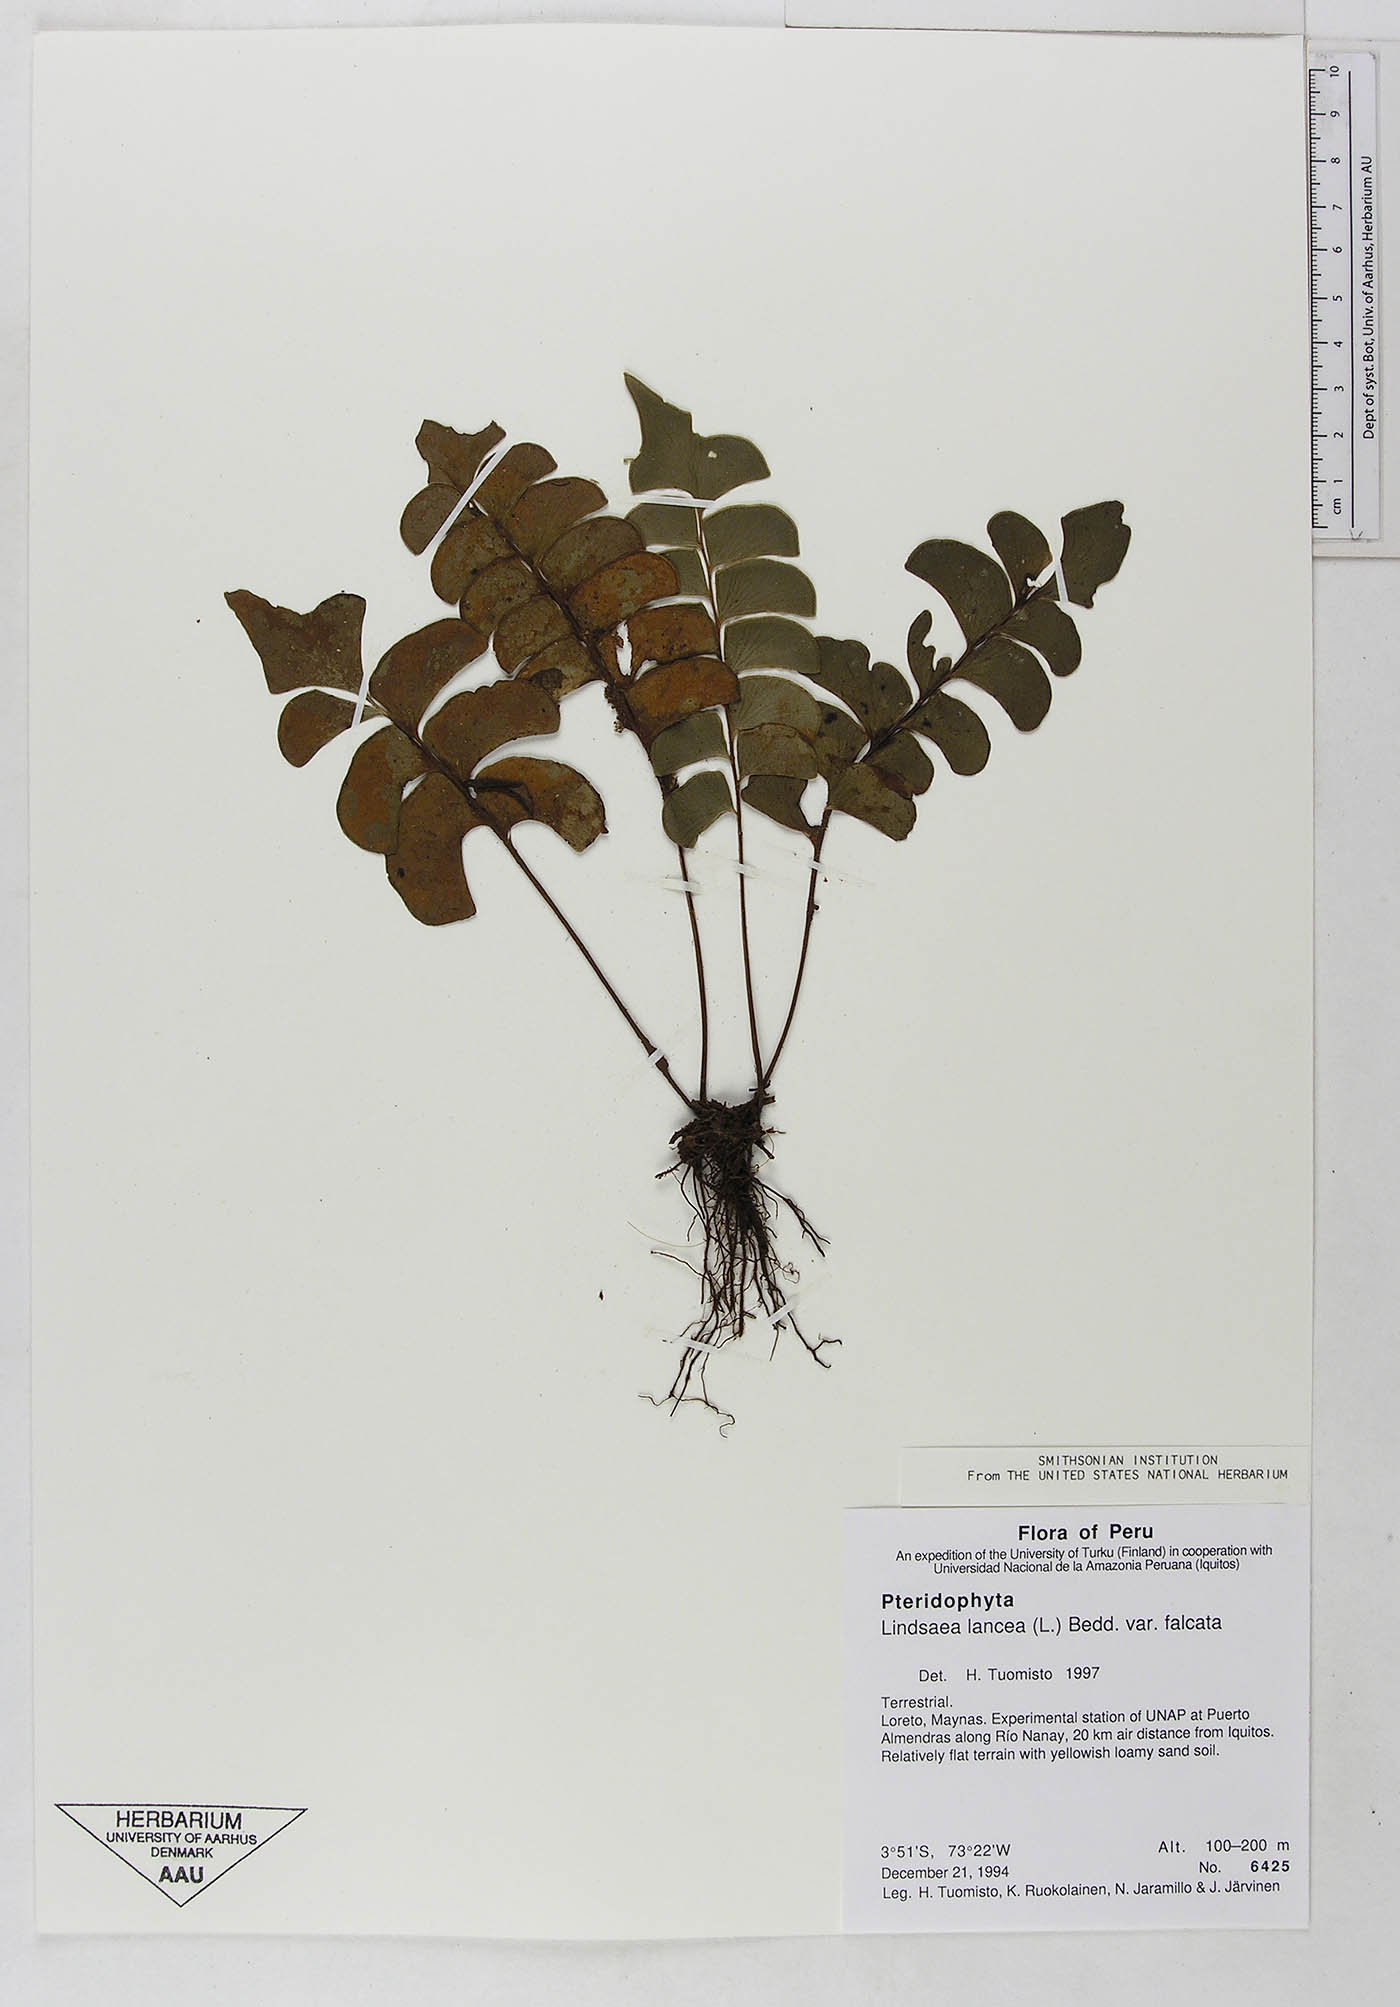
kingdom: Plantae
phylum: Tracheophyta
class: Polypodiopsida
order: Polypodiales
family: Dennstaedtiaceae
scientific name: Dennstaedtiaceae
